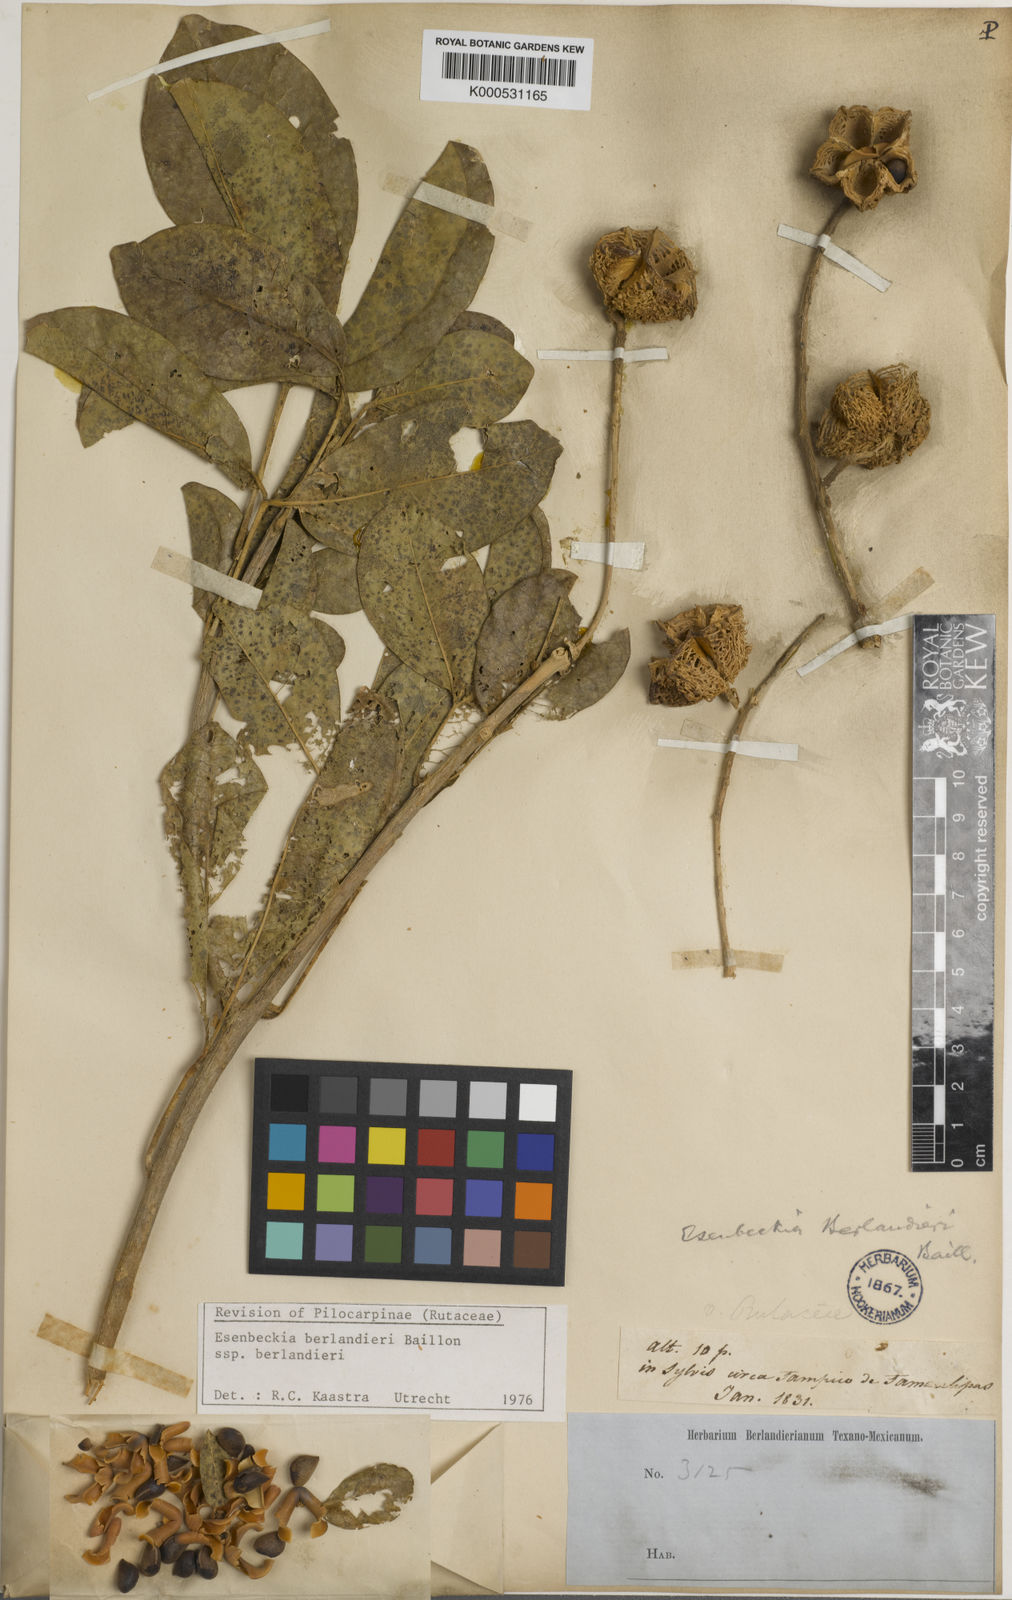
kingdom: Plantae
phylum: Tracheophyta
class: Magnoliopsida
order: Sapindales
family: Rutaceae
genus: Esenbeckia
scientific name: Esenbeckia
